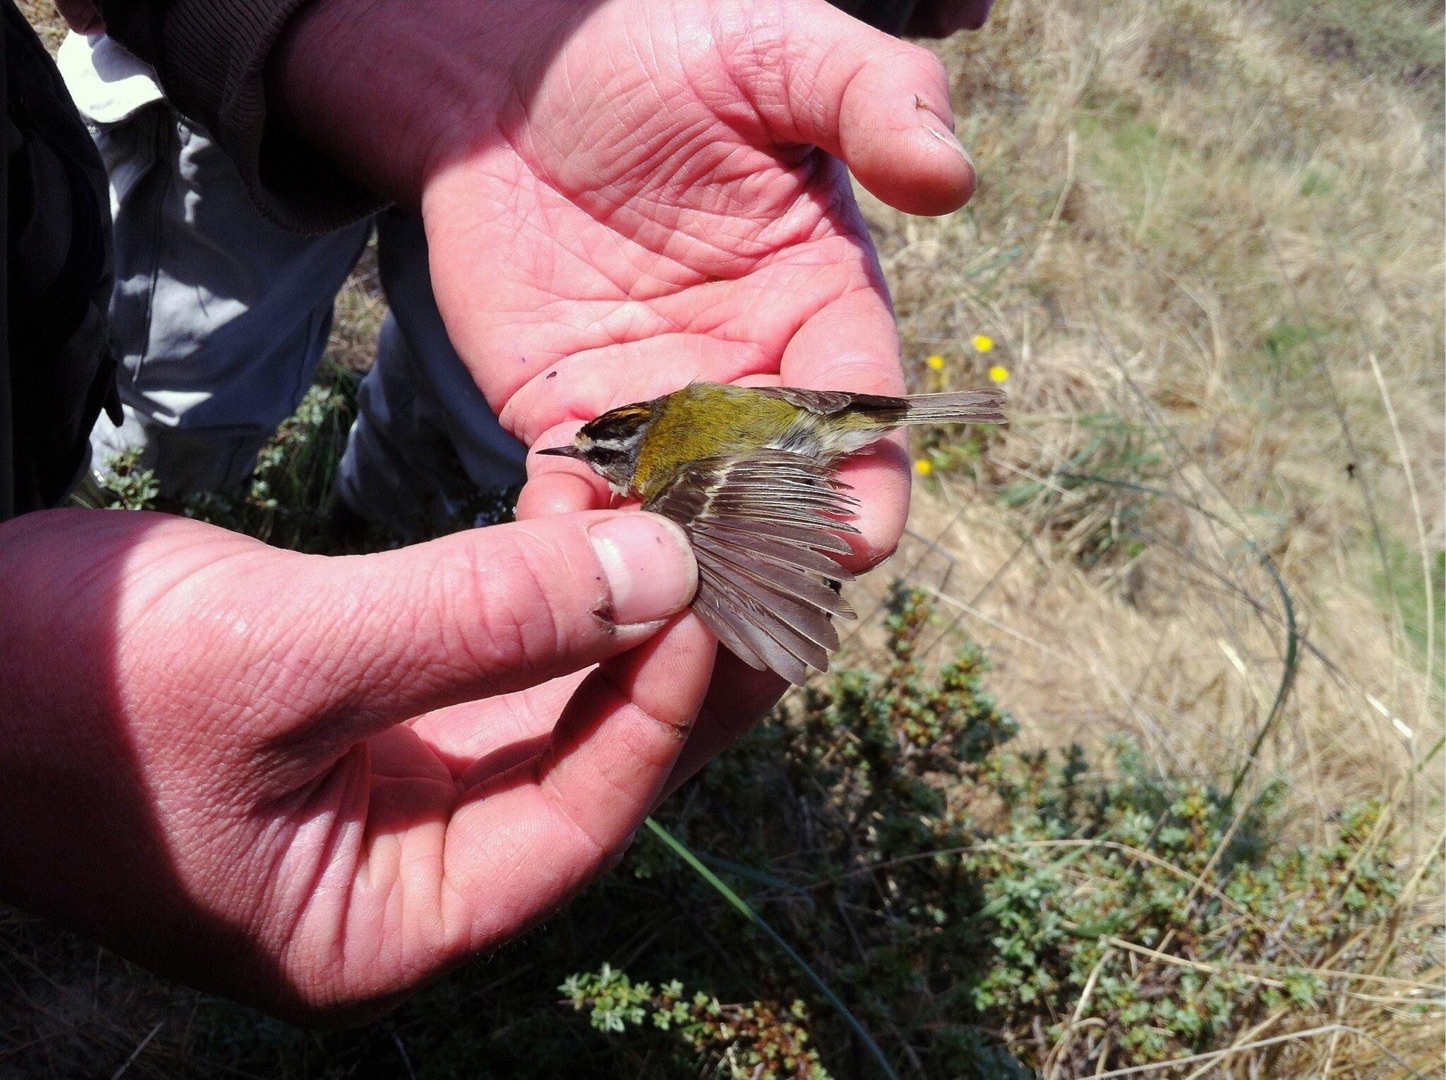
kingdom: Animalia
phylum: Chordata
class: Aves
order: Passeriformes
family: Regulidae
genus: Regulus
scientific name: Regulus ignicapilla
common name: Rødtoppet fuglekonge
